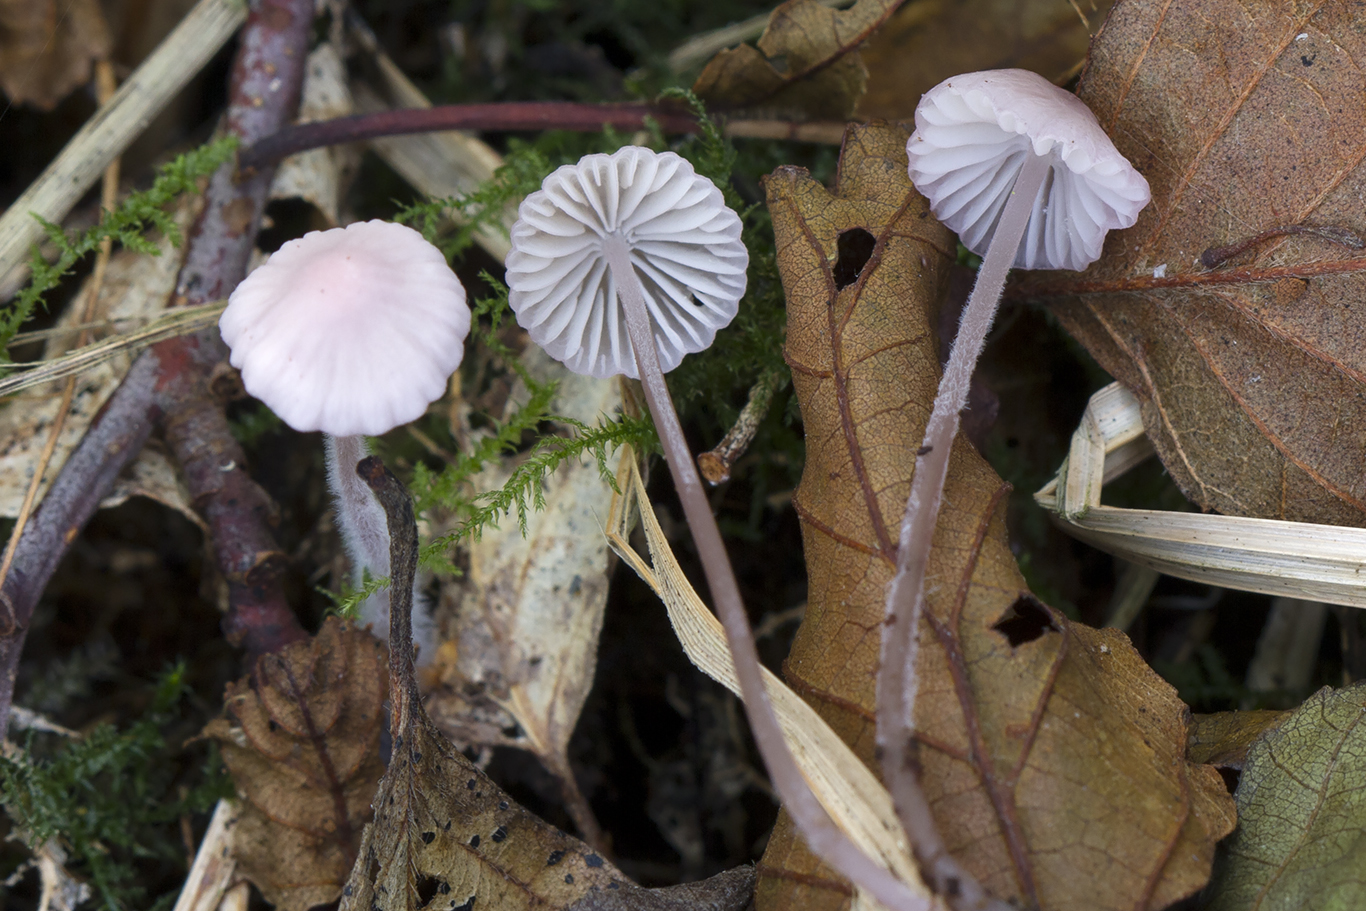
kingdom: Fungi
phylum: Basidiomycota
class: Agaricomycetes
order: Agaricales
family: Mycenaceae
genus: Mycena
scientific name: Mycena
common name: huesvamp
